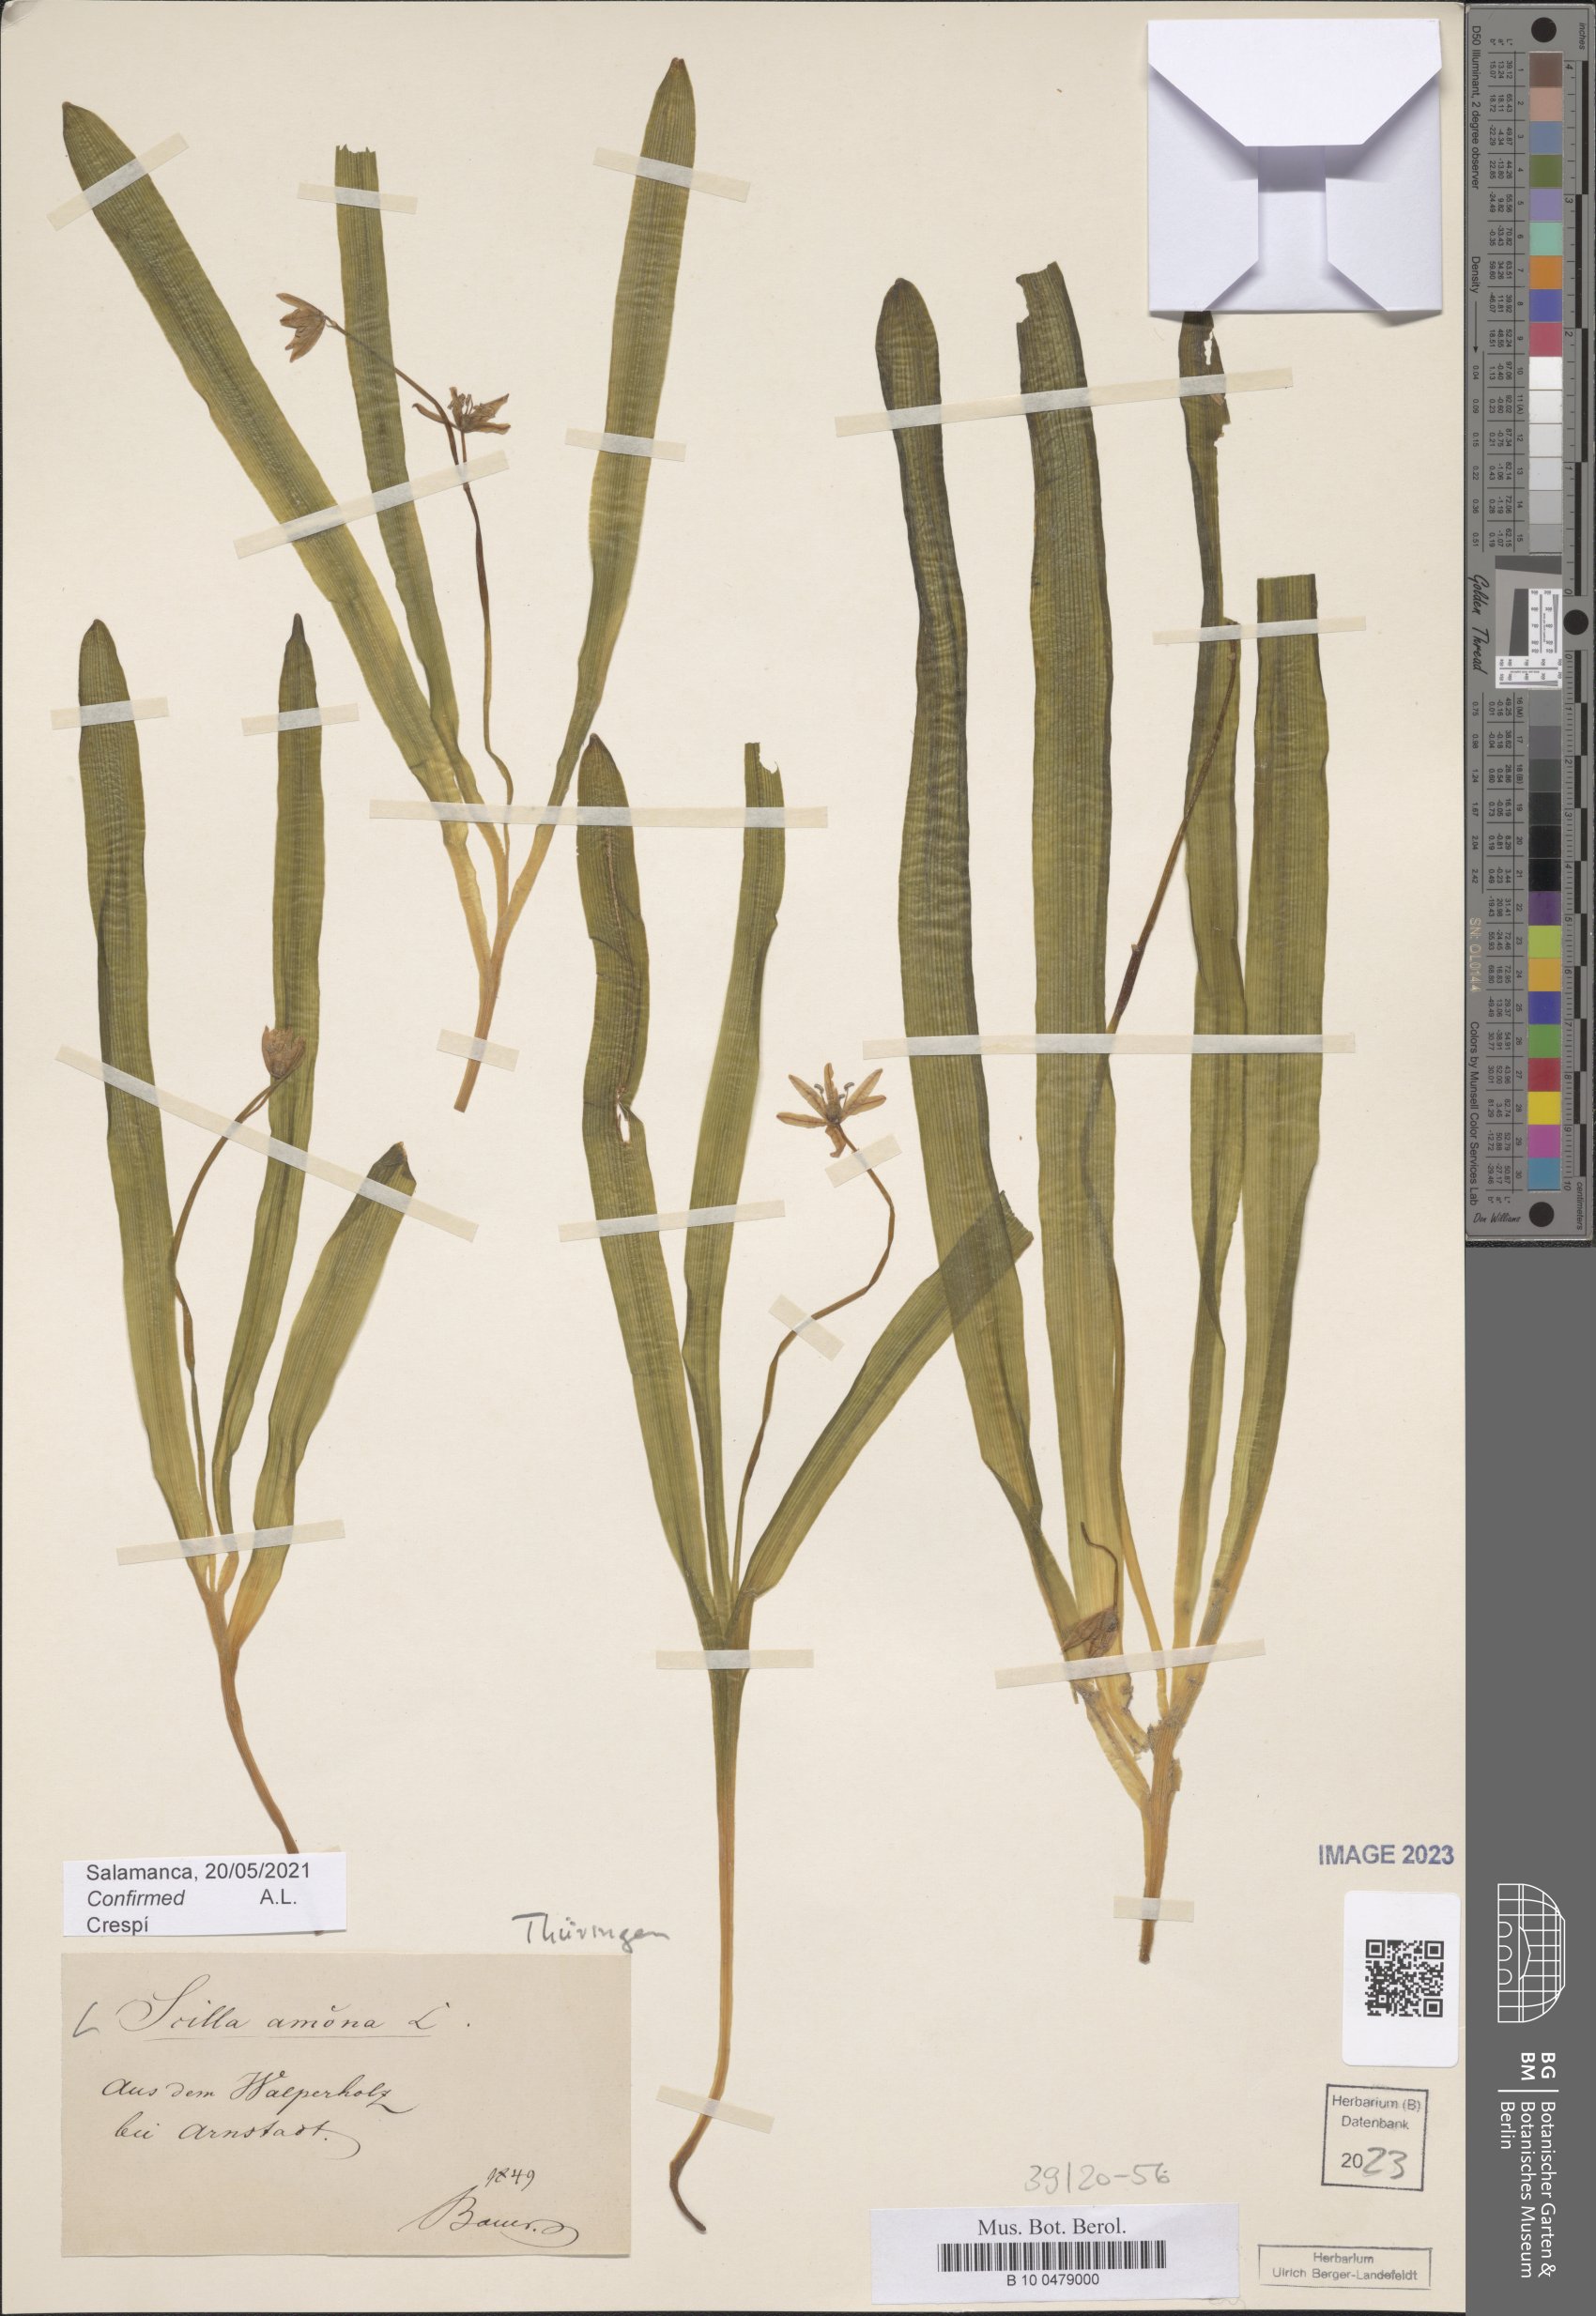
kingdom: Plantae
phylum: Tracheophyta
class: Liliopsida
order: Asparagales
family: Asparagaceae
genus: Scilla
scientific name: Scilla amoena
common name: Star-hyacinth
